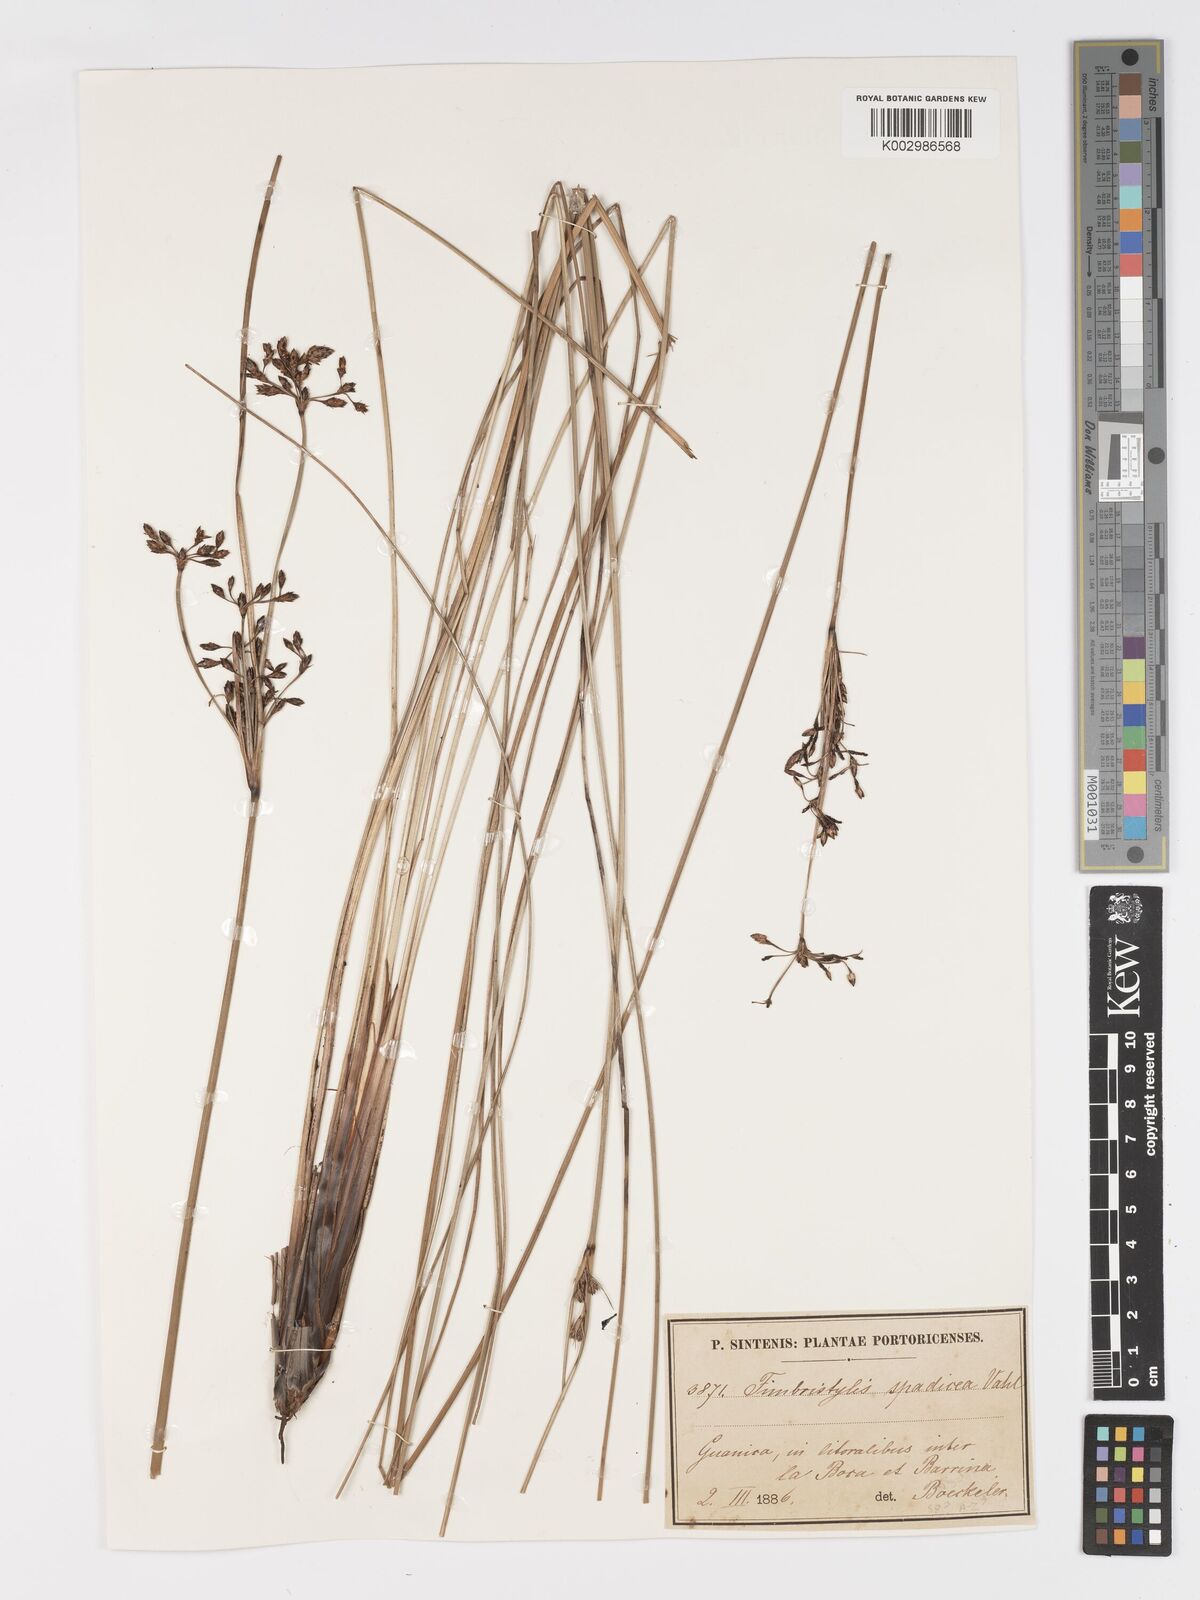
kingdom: Plantae
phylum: Tracheophyta
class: Liliopsida
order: Poales
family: Cyperaceae
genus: Fimbristylis
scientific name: Fimbristylis spadicea
